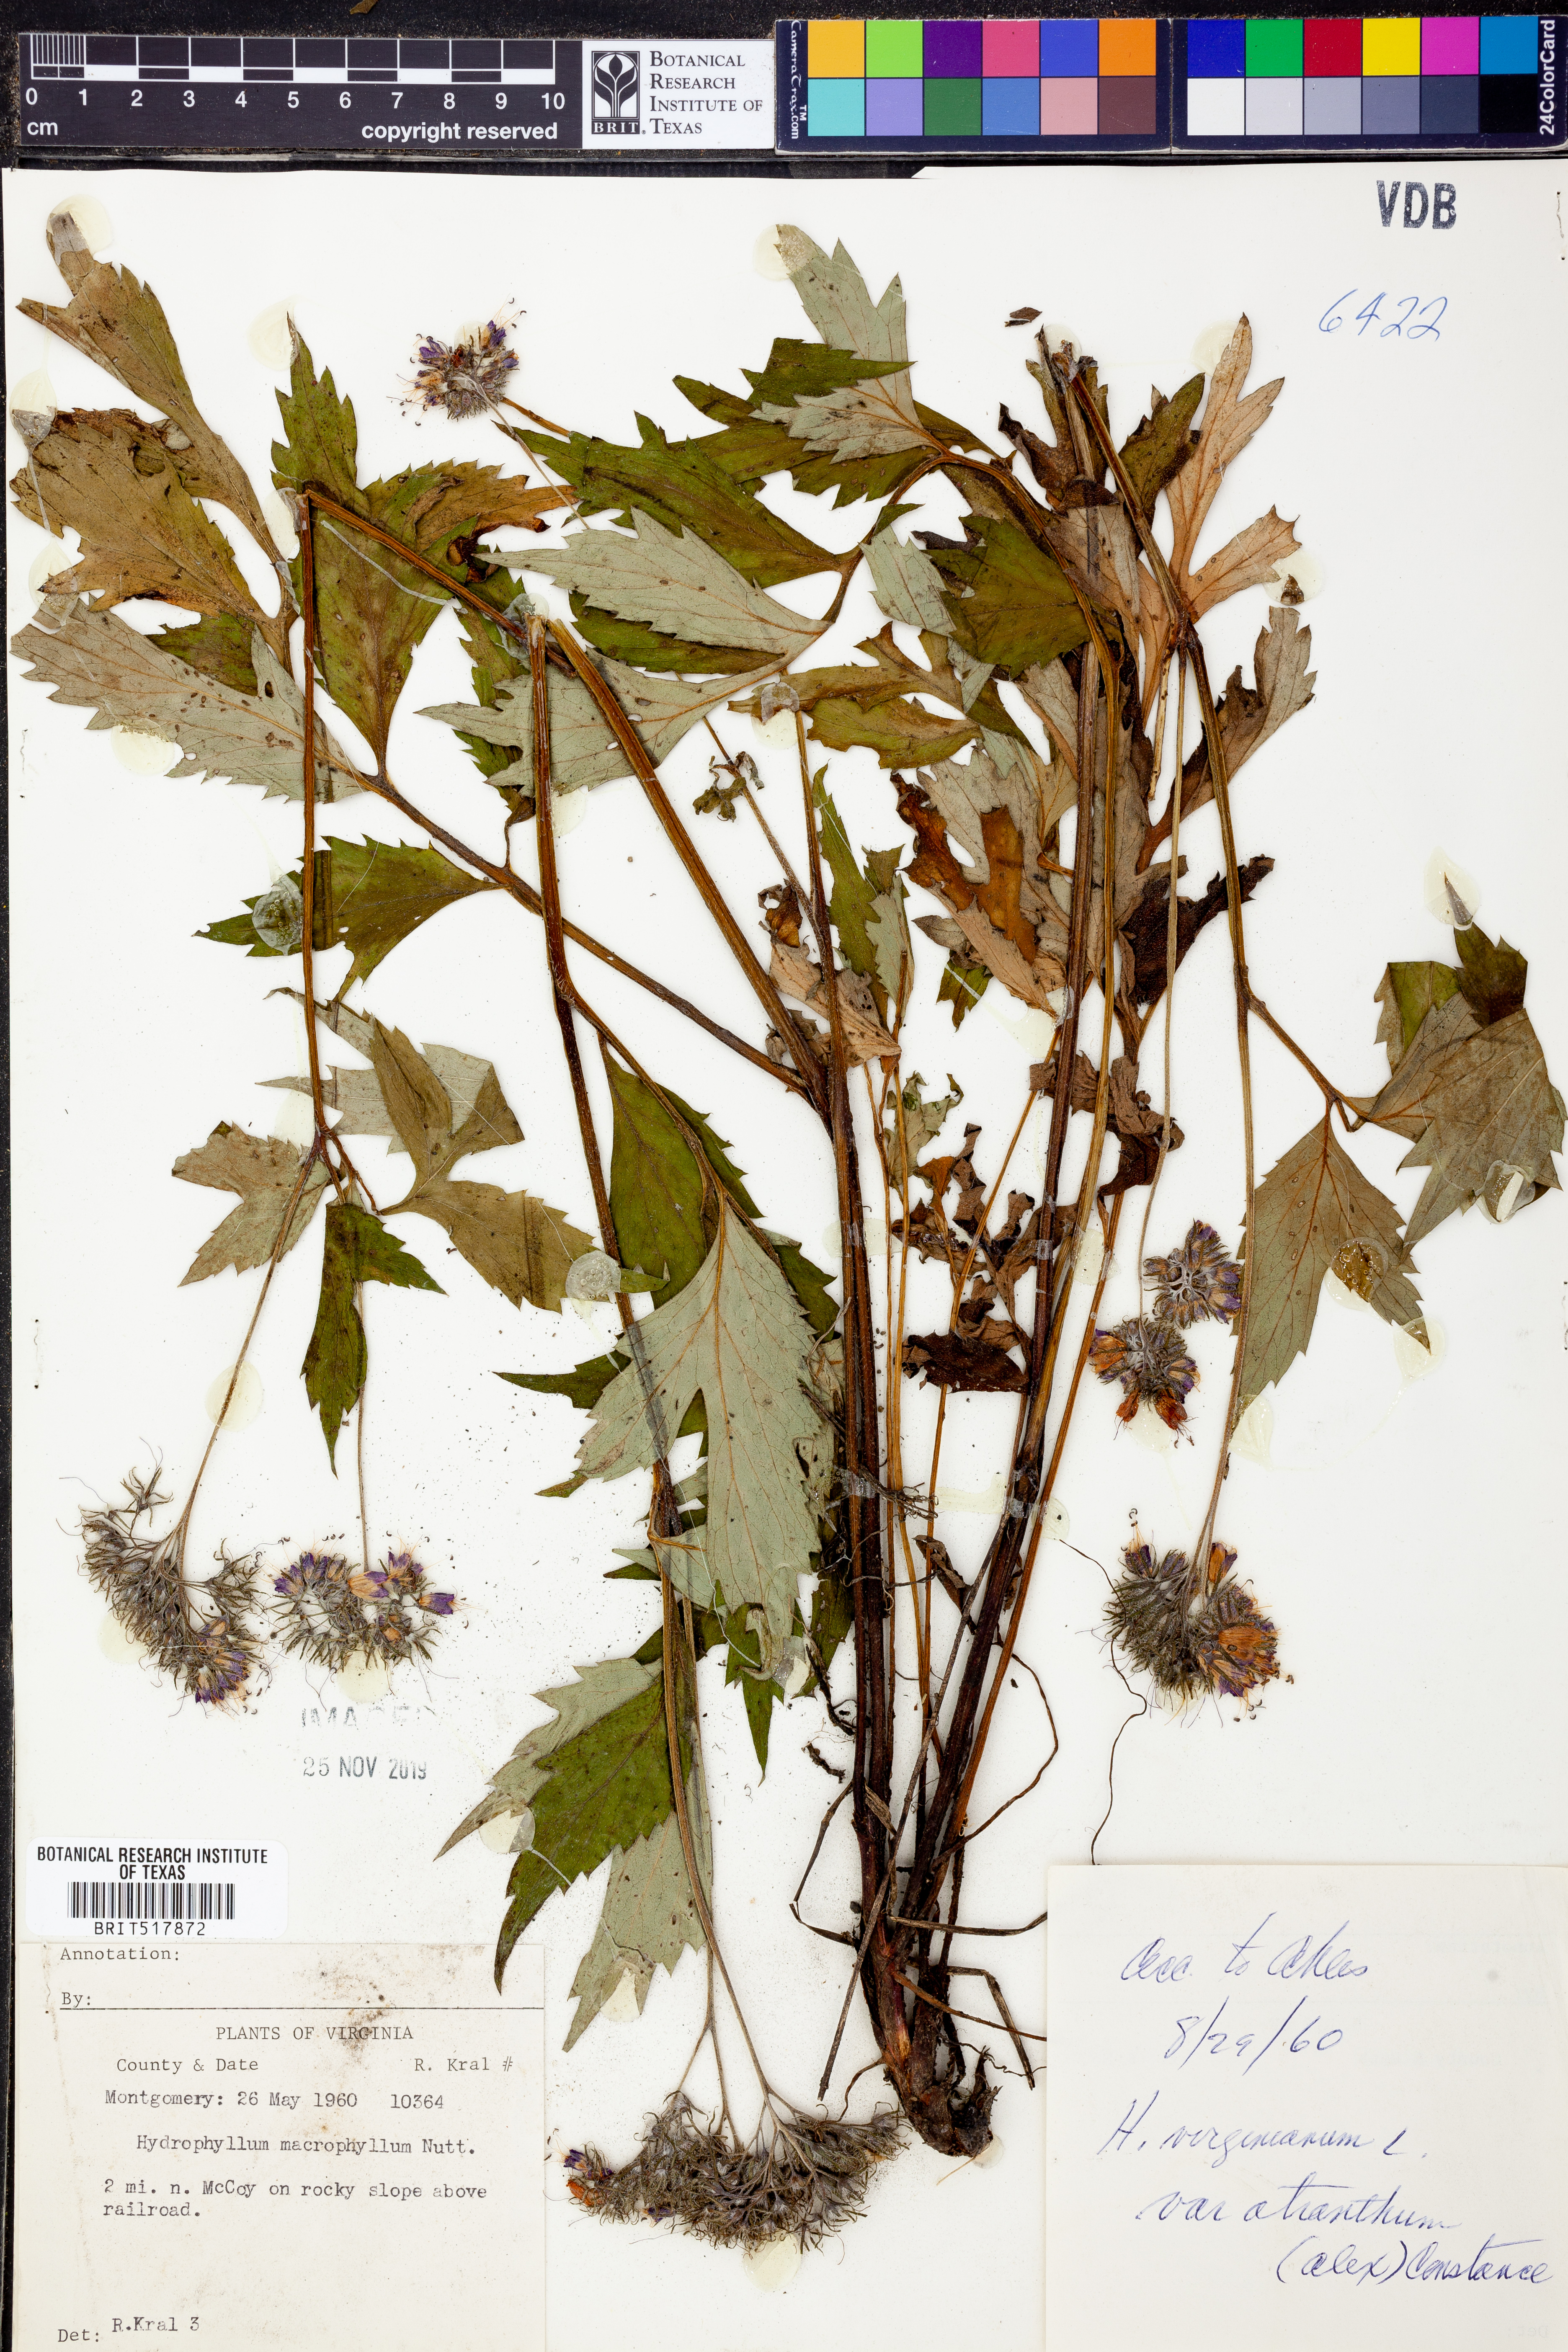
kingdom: Plantae
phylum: Tracheophyta
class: Magnoliopsida
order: Boraginales
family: Hydrophyllaceae
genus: Hydrophyllum
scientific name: Hydrophyllum macrophyllum
